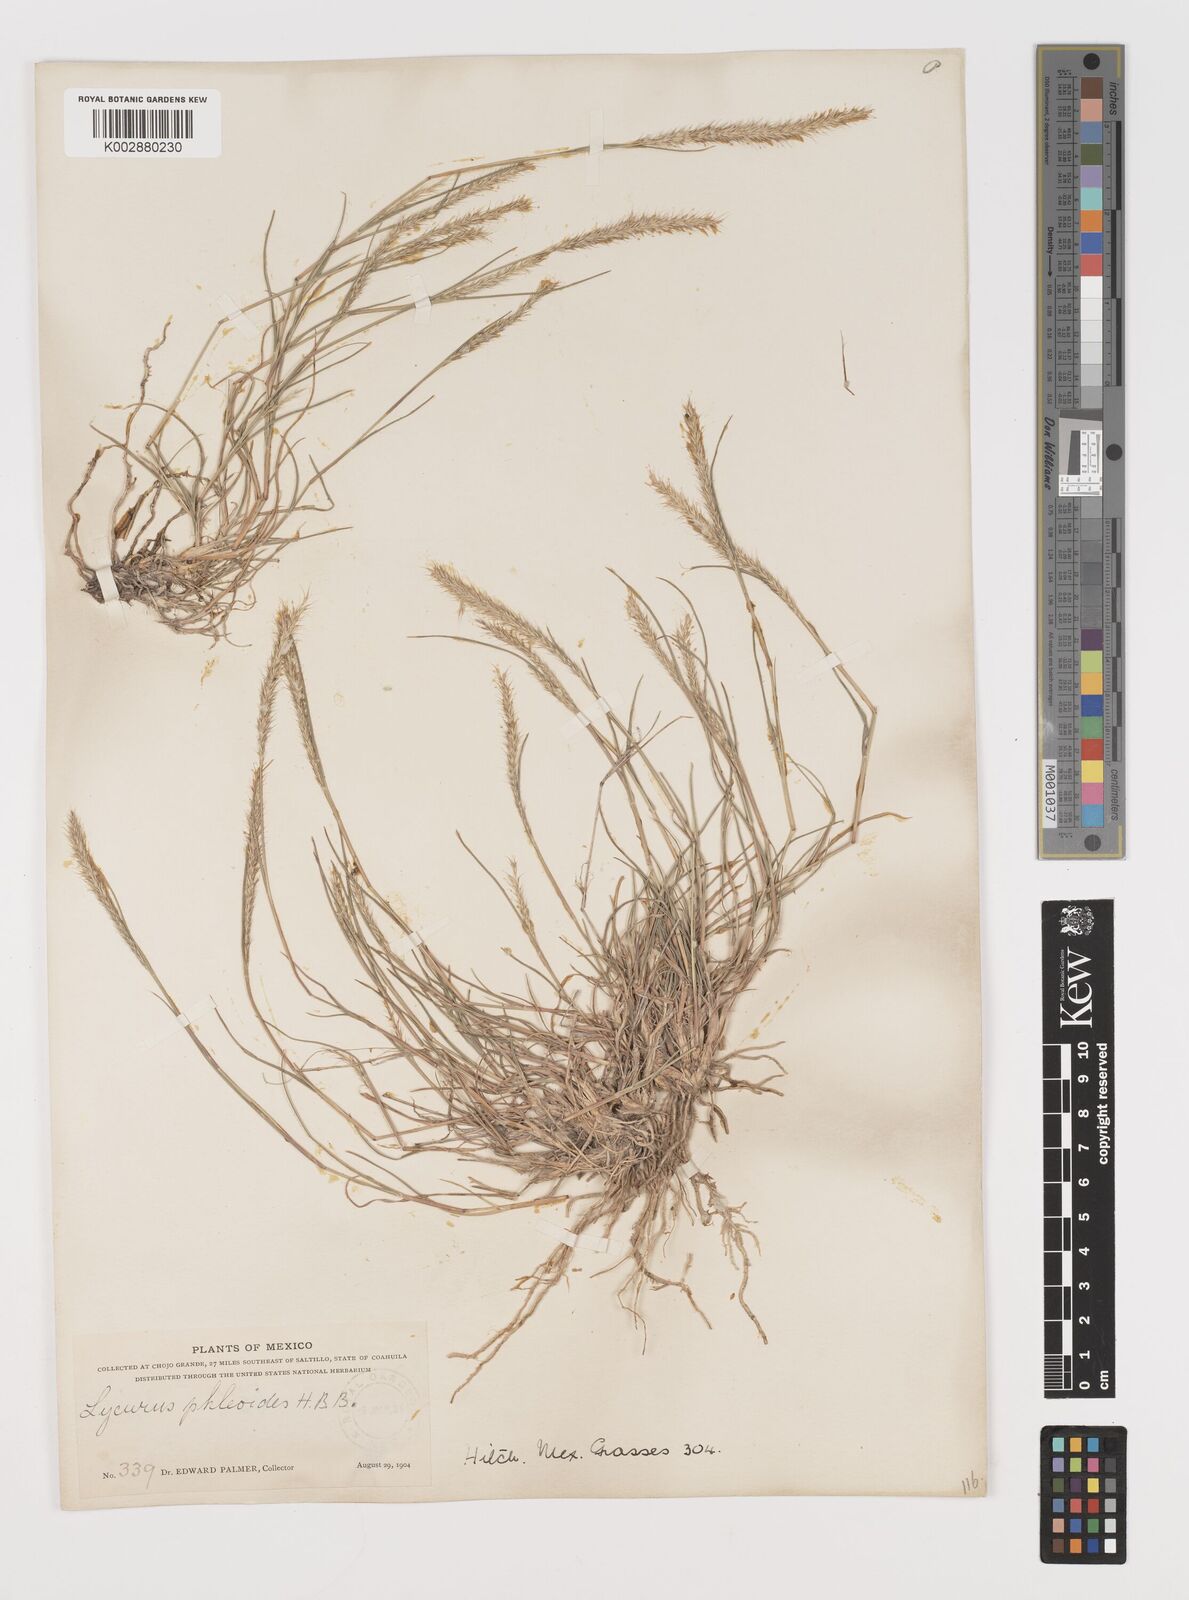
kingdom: Plantae
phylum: Tracheophyta
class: Liliopsida
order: Poales
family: Poaceae
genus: Muhlenbergia
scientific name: Muhlenbergia phleoides
